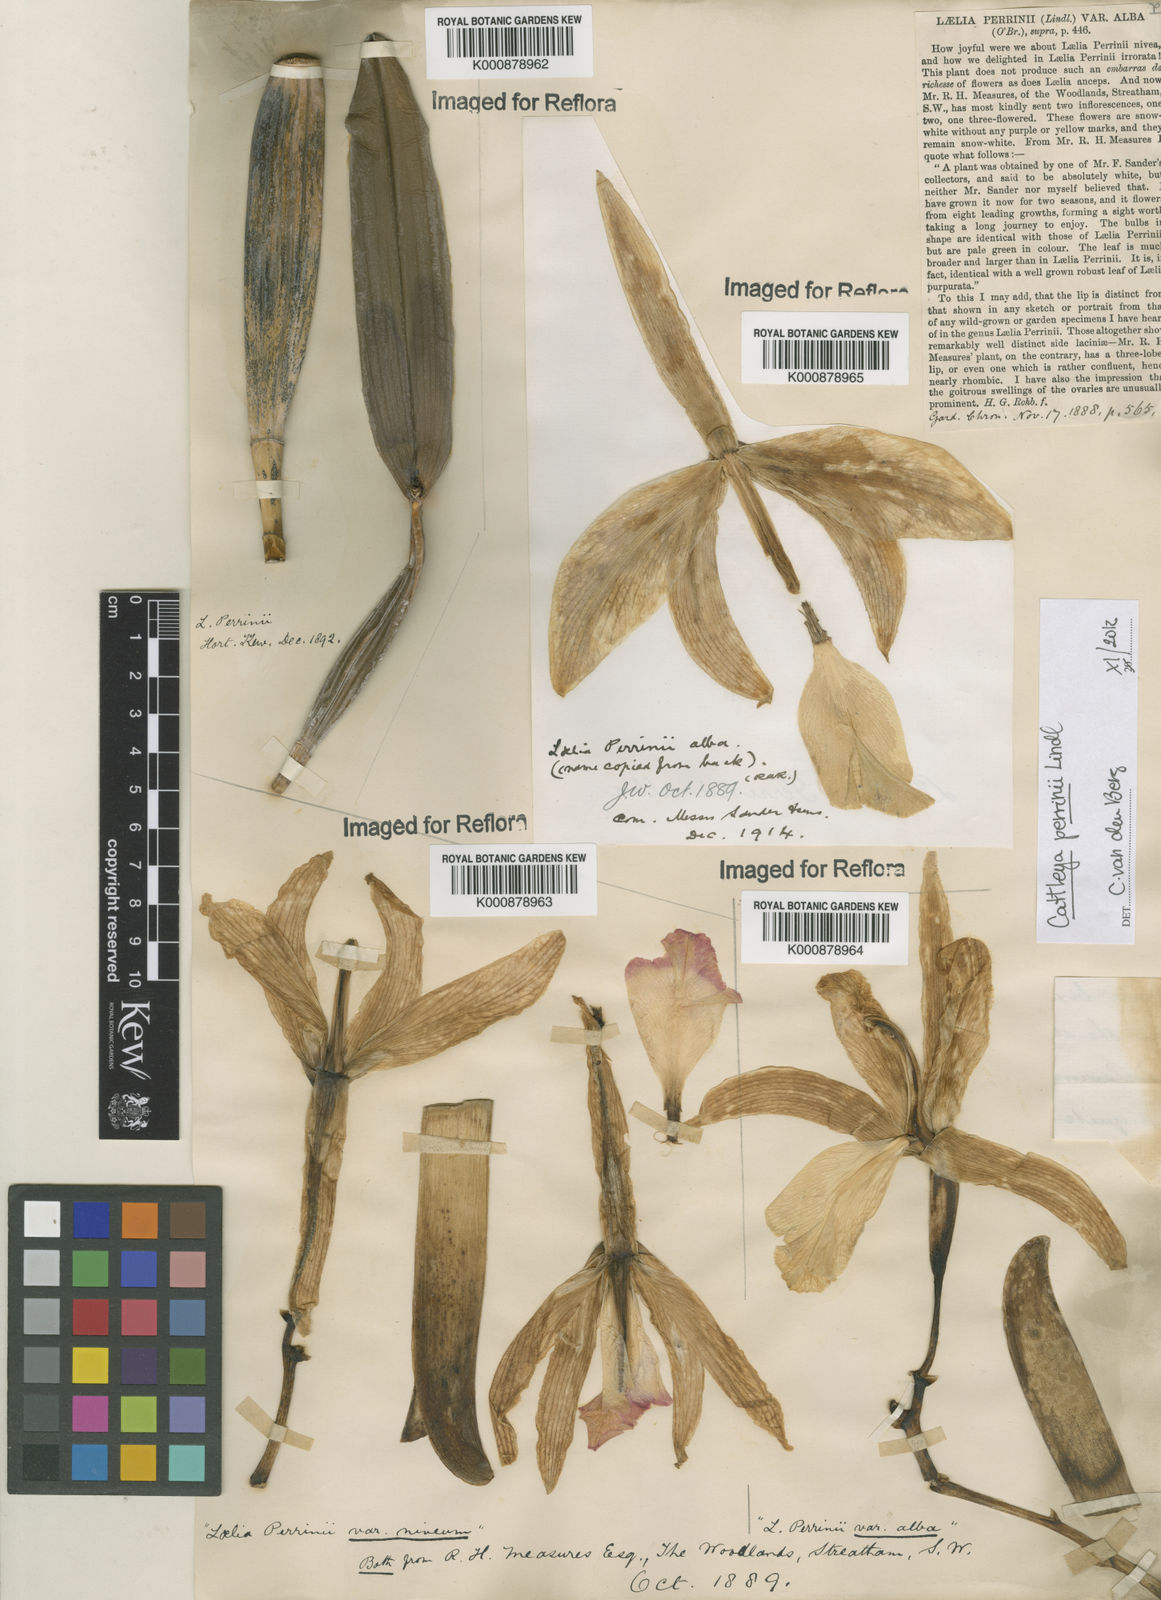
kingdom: Plantae
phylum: Tracheophyta
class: Liliopsida
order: Asparagales
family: Orchidaceae
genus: Cattleya
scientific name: Cattleya labiata
